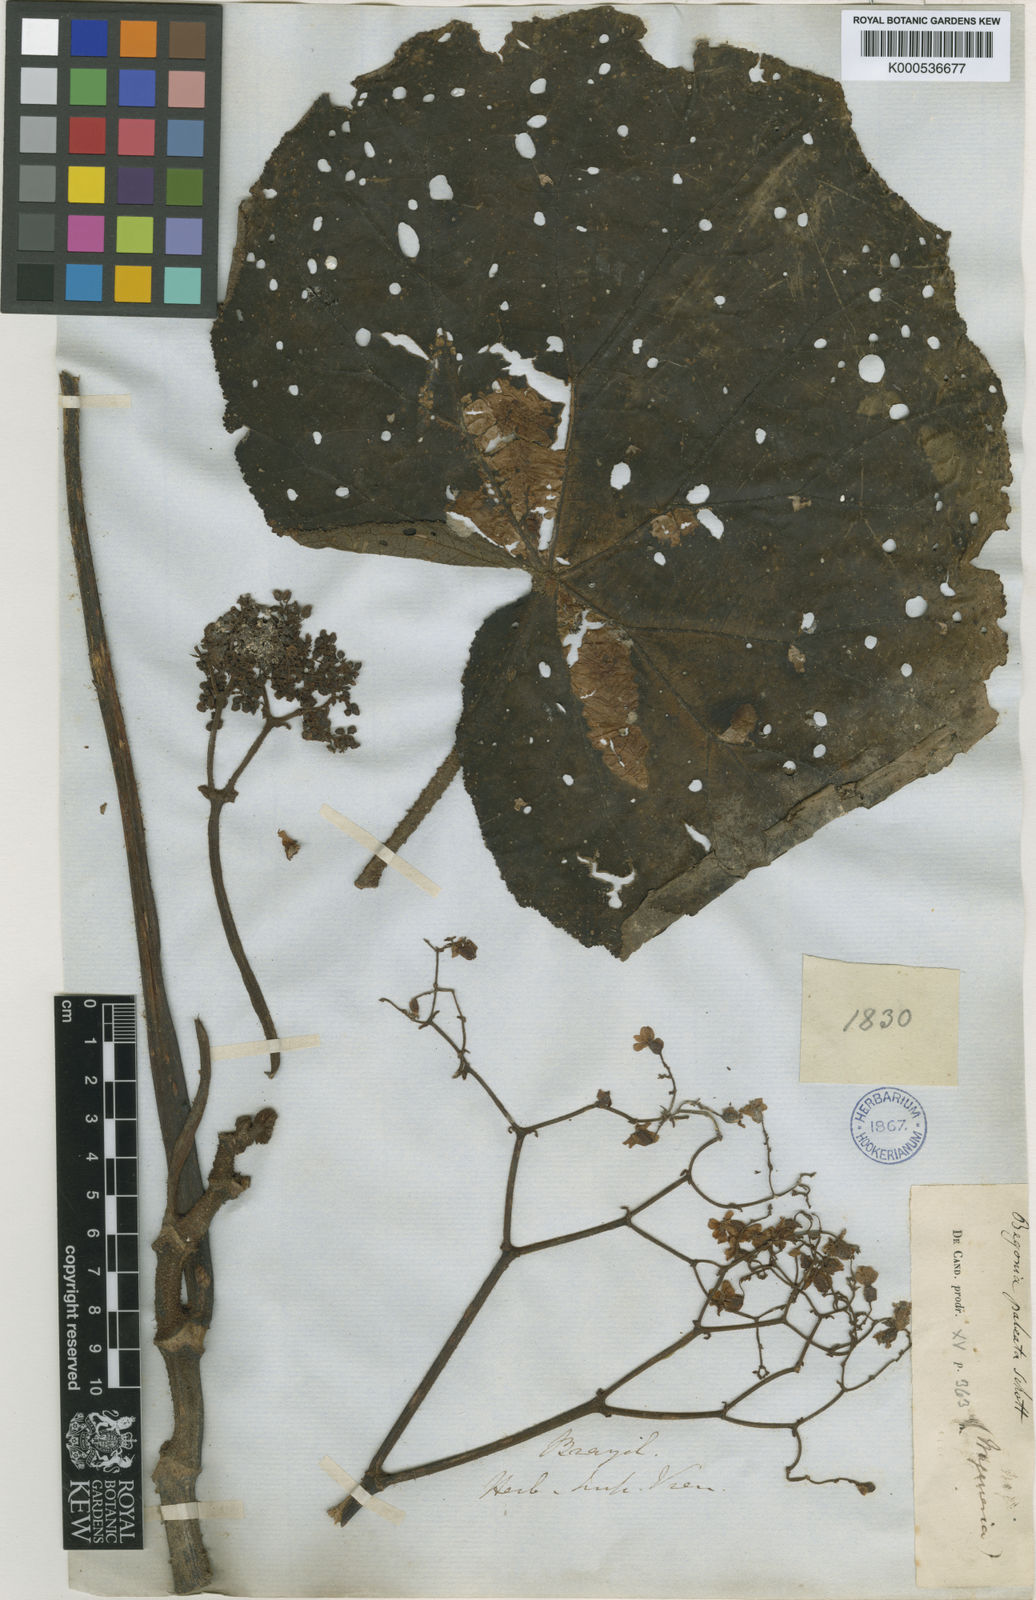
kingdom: Plantae
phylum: Tracheophyta
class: Magnoliopsida
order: Cucurbitales
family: Begoniaceae
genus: Begonia
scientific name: Begonia paleata
